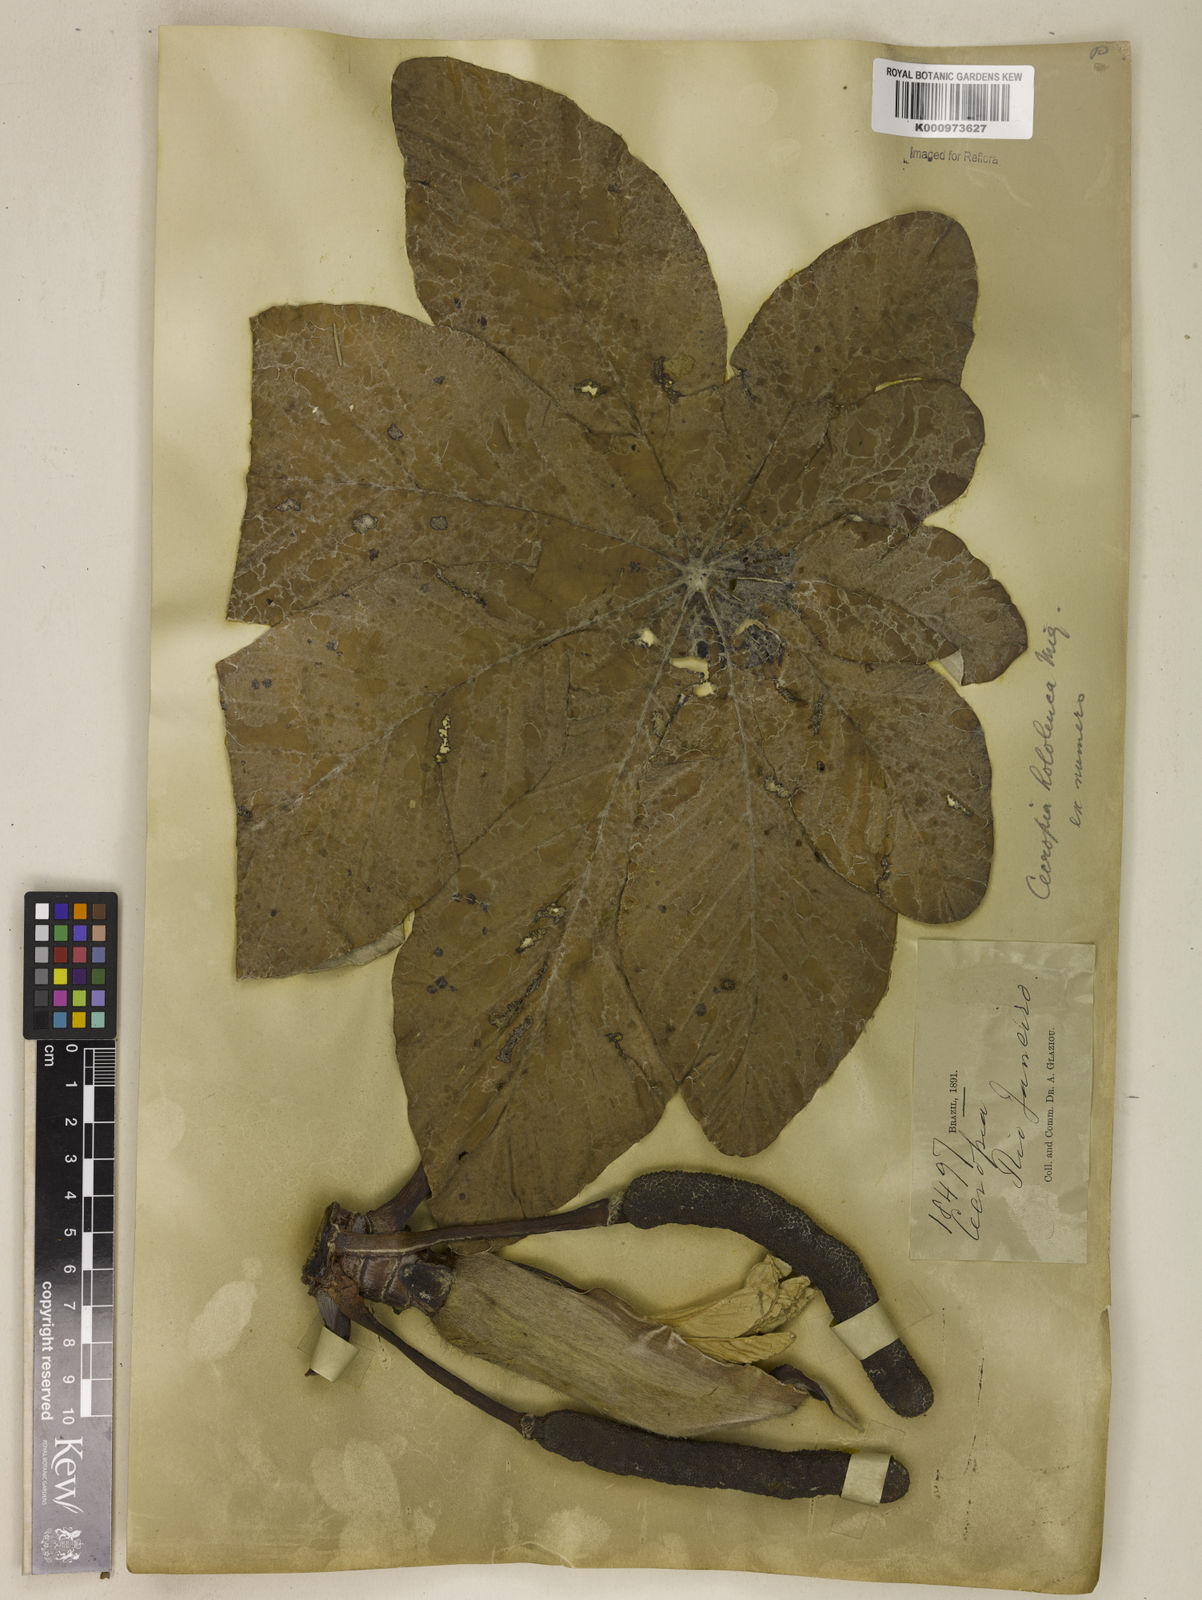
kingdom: Plantae
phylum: Tracheophyta
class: Magnoliopsida
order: Rosales
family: Urticaceae
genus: Cecropia
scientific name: Cecropia hololeuca
